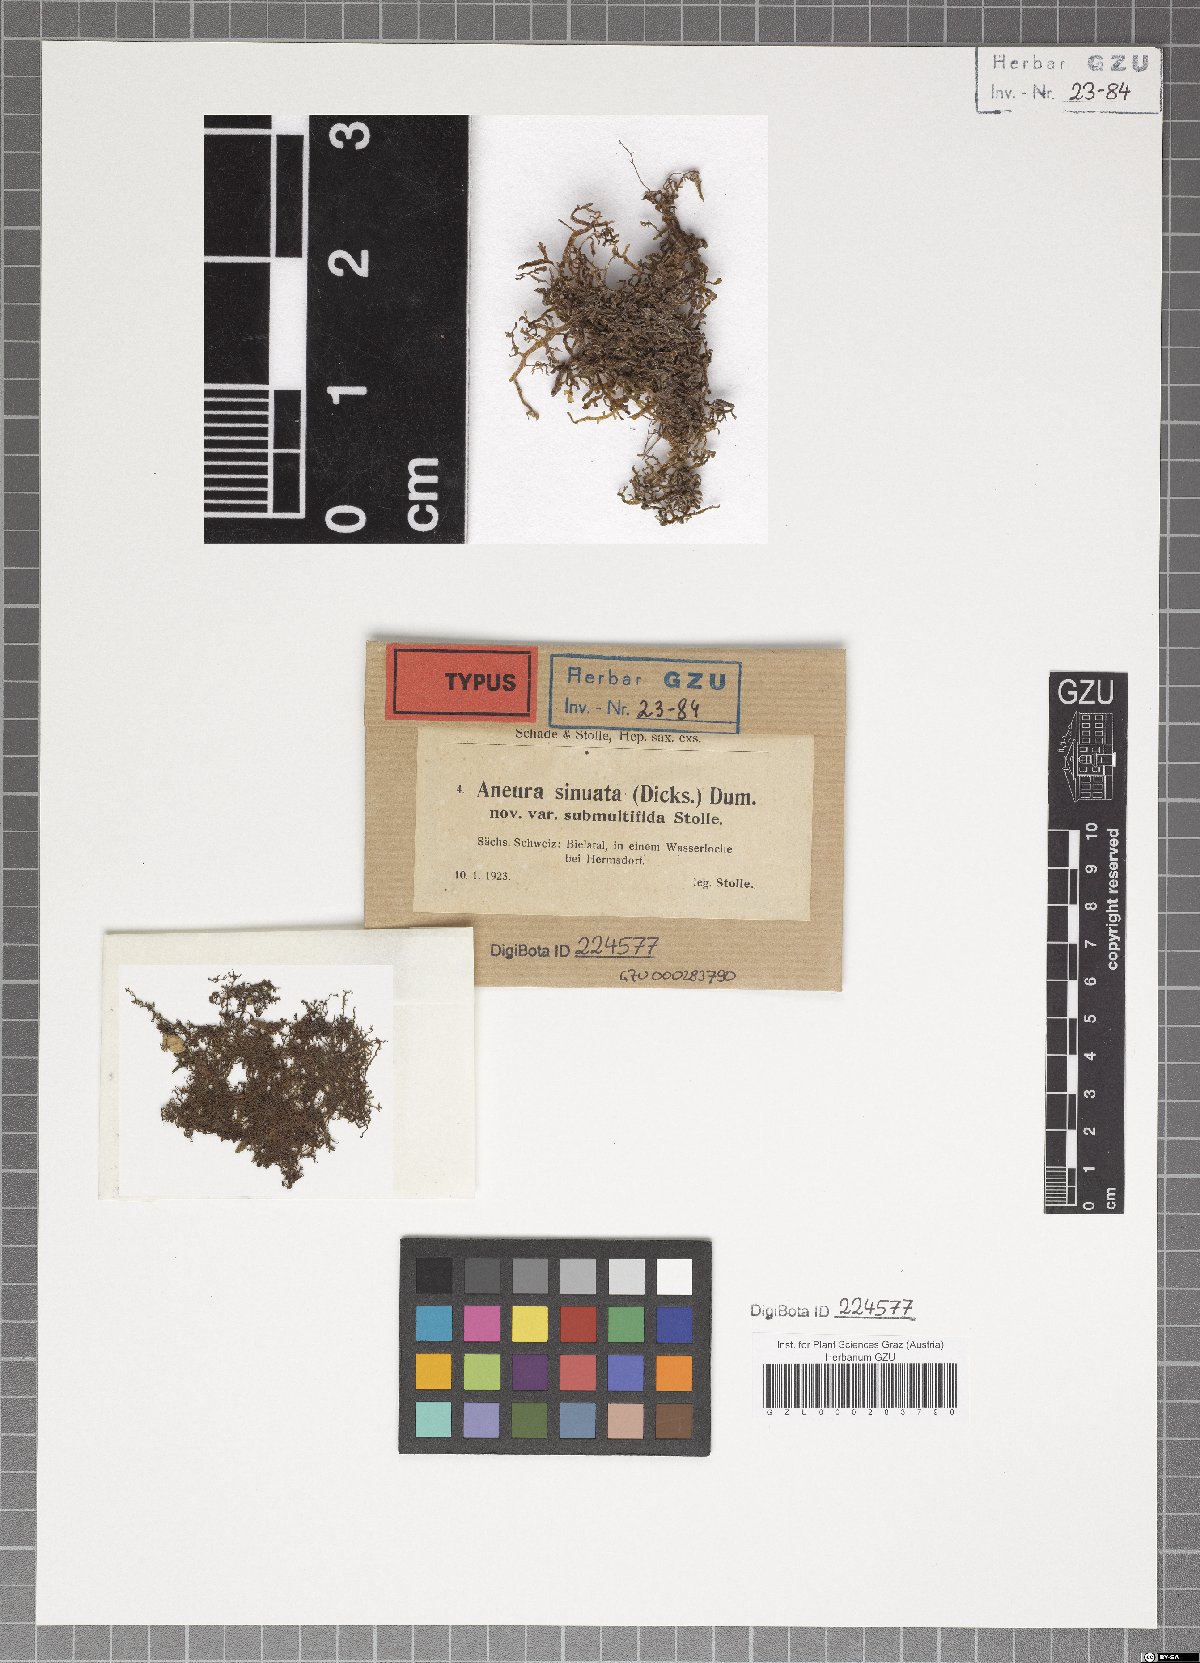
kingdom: Plantae
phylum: Marchantiophyta
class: Jungermanniopsida
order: Metzgeriales
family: Aneuraceae
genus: Riccardia
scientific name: Riccardia chamedryfolia
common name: Jagged germanderwort
